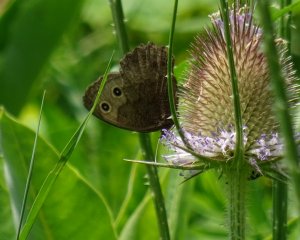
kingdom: Animalia
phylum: Arthropoda
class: Insecta
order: Lepidoptera
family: Nymphalidae
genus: Cercyonis
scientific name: Cercyonis pegala
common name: Common Wood-Nymph
